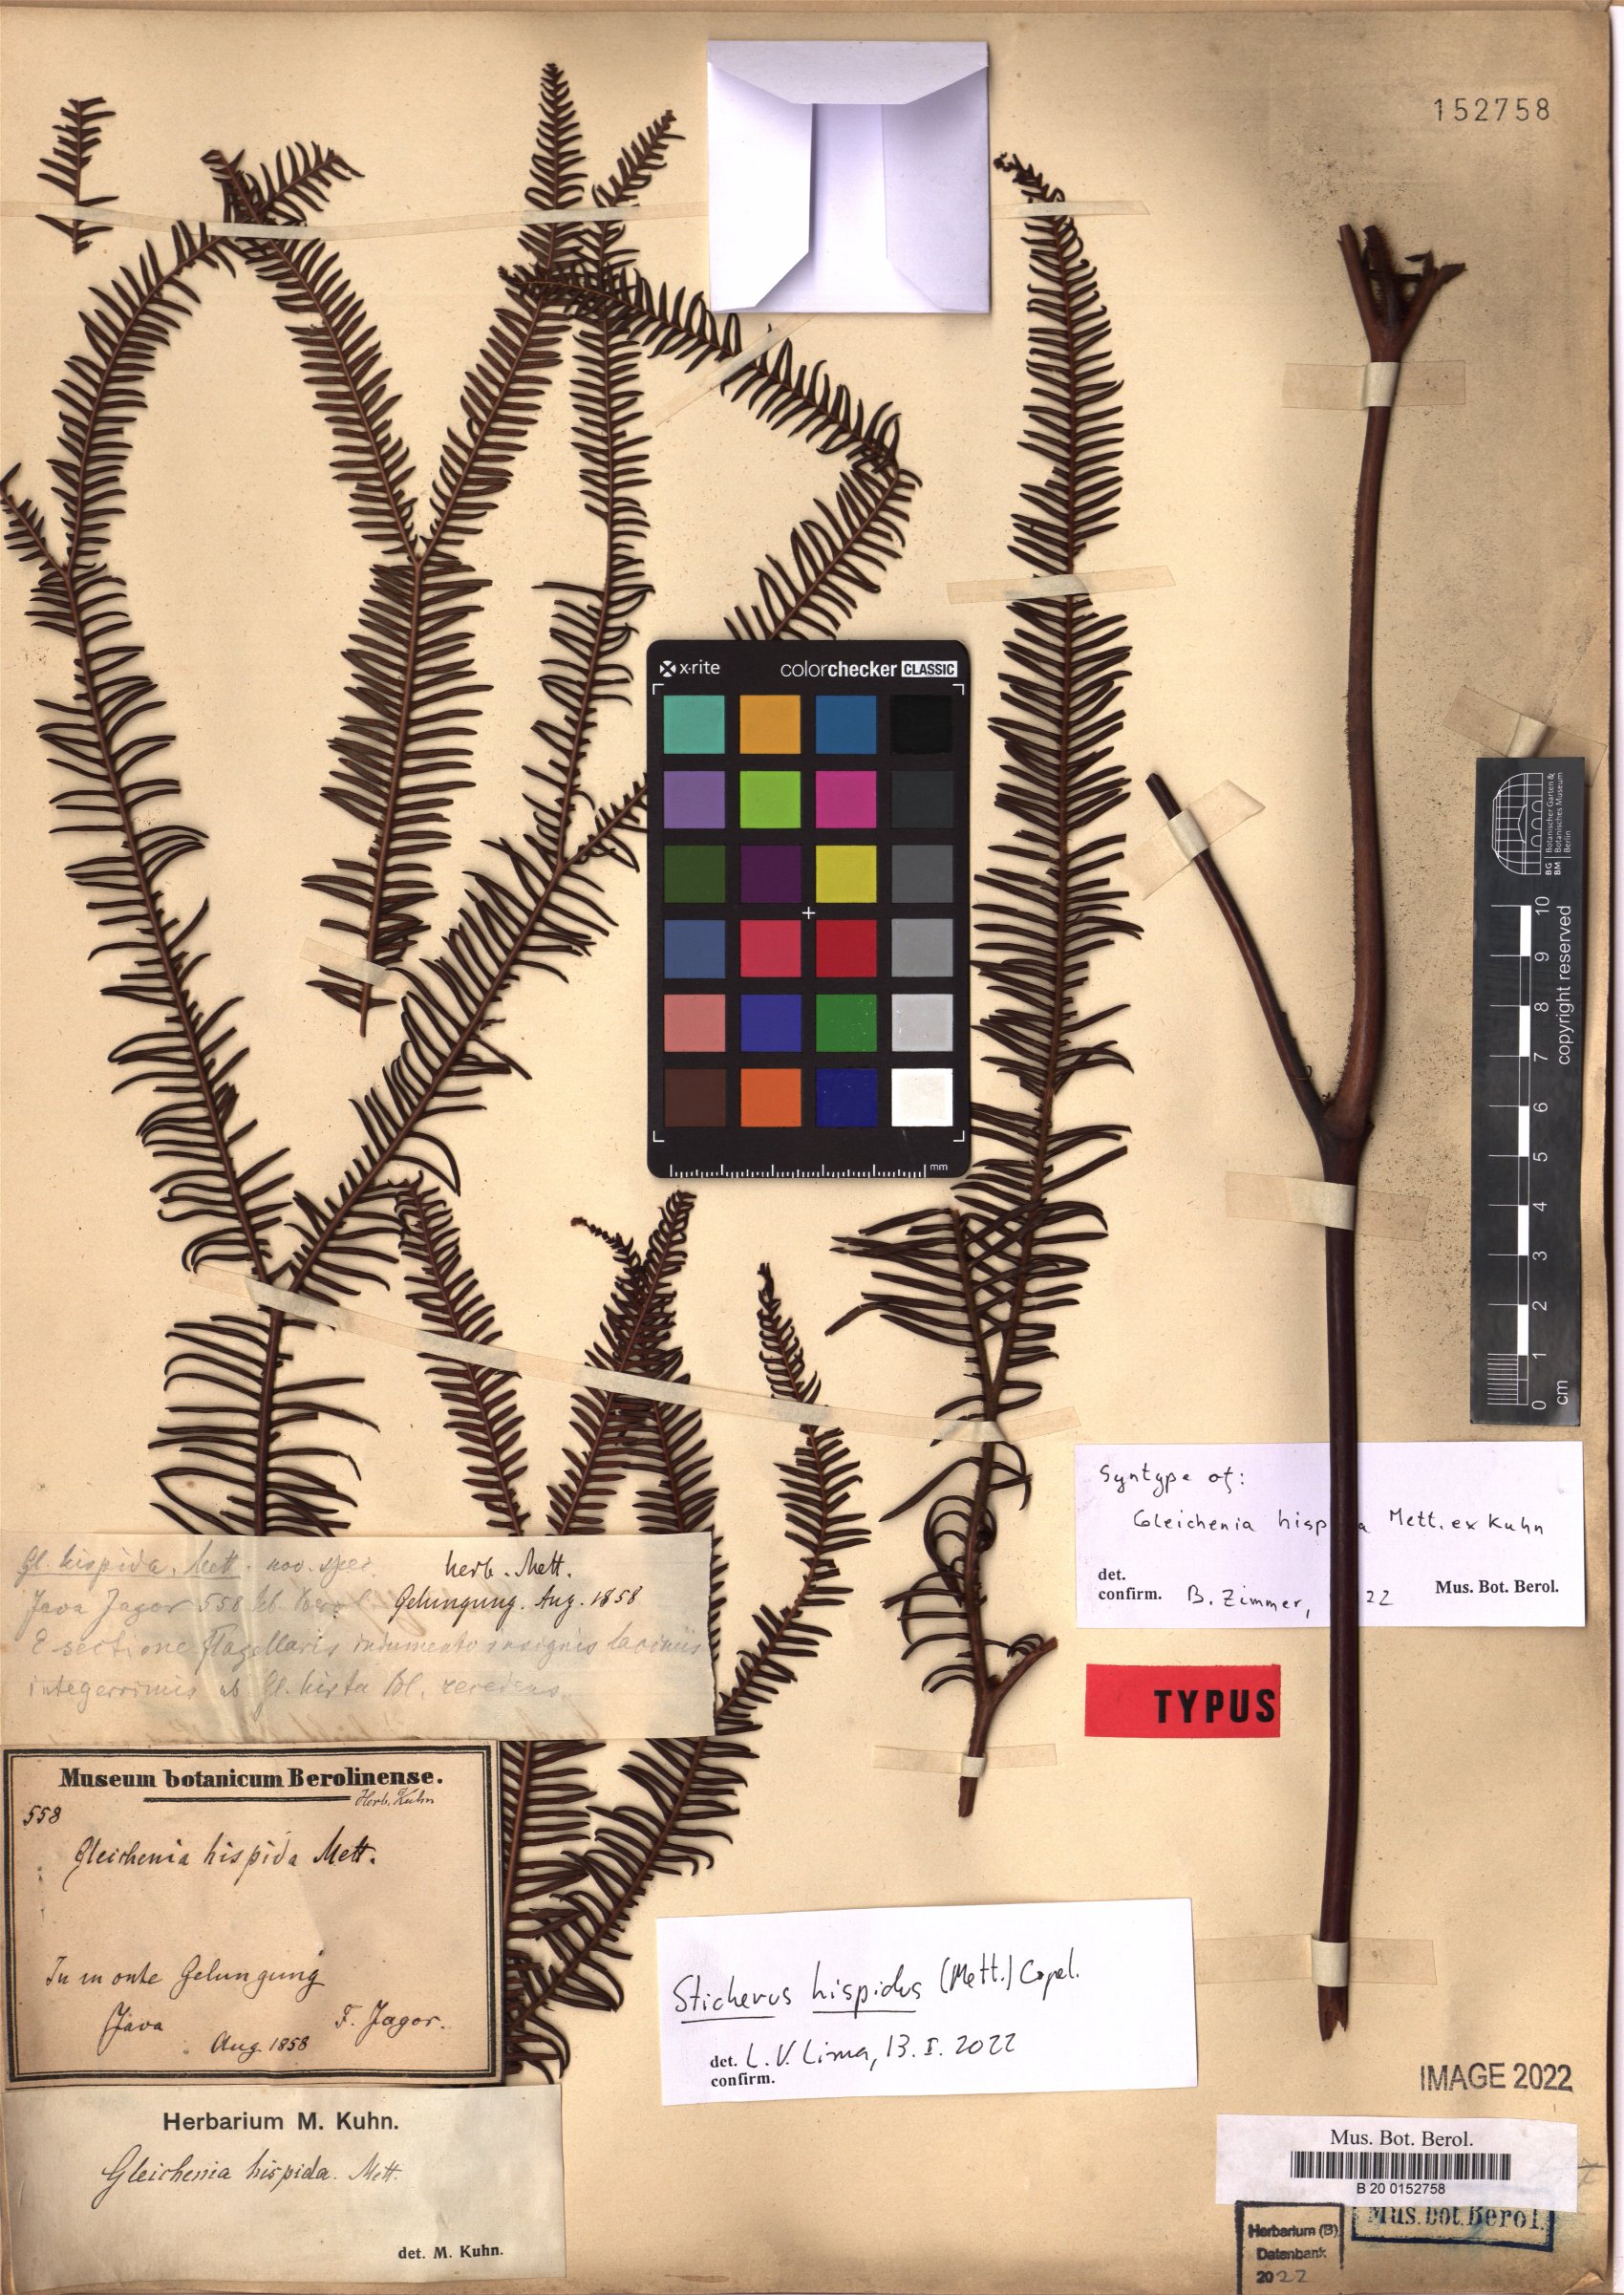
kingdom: Plantae
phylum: Tracheophyta
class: Polypodiopsida
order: Gleicheniales
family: Gleicheniaceae
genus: Sticherus
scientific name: Sticherus hispidus
